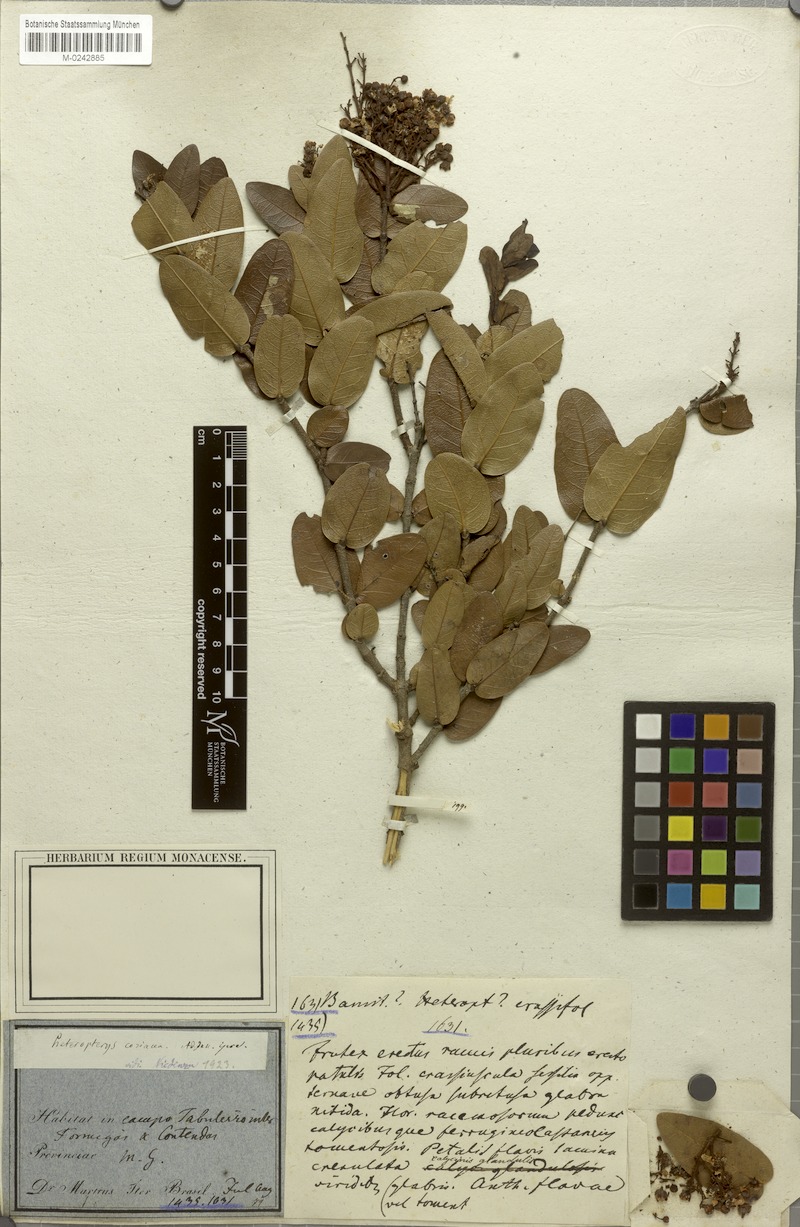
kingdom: Plantae
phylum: Tracheophyta
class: Magnoliopsida
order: Malpighiales
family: Malpighiaceae
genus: Heteropterys
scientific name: Heteropterys coriacea
